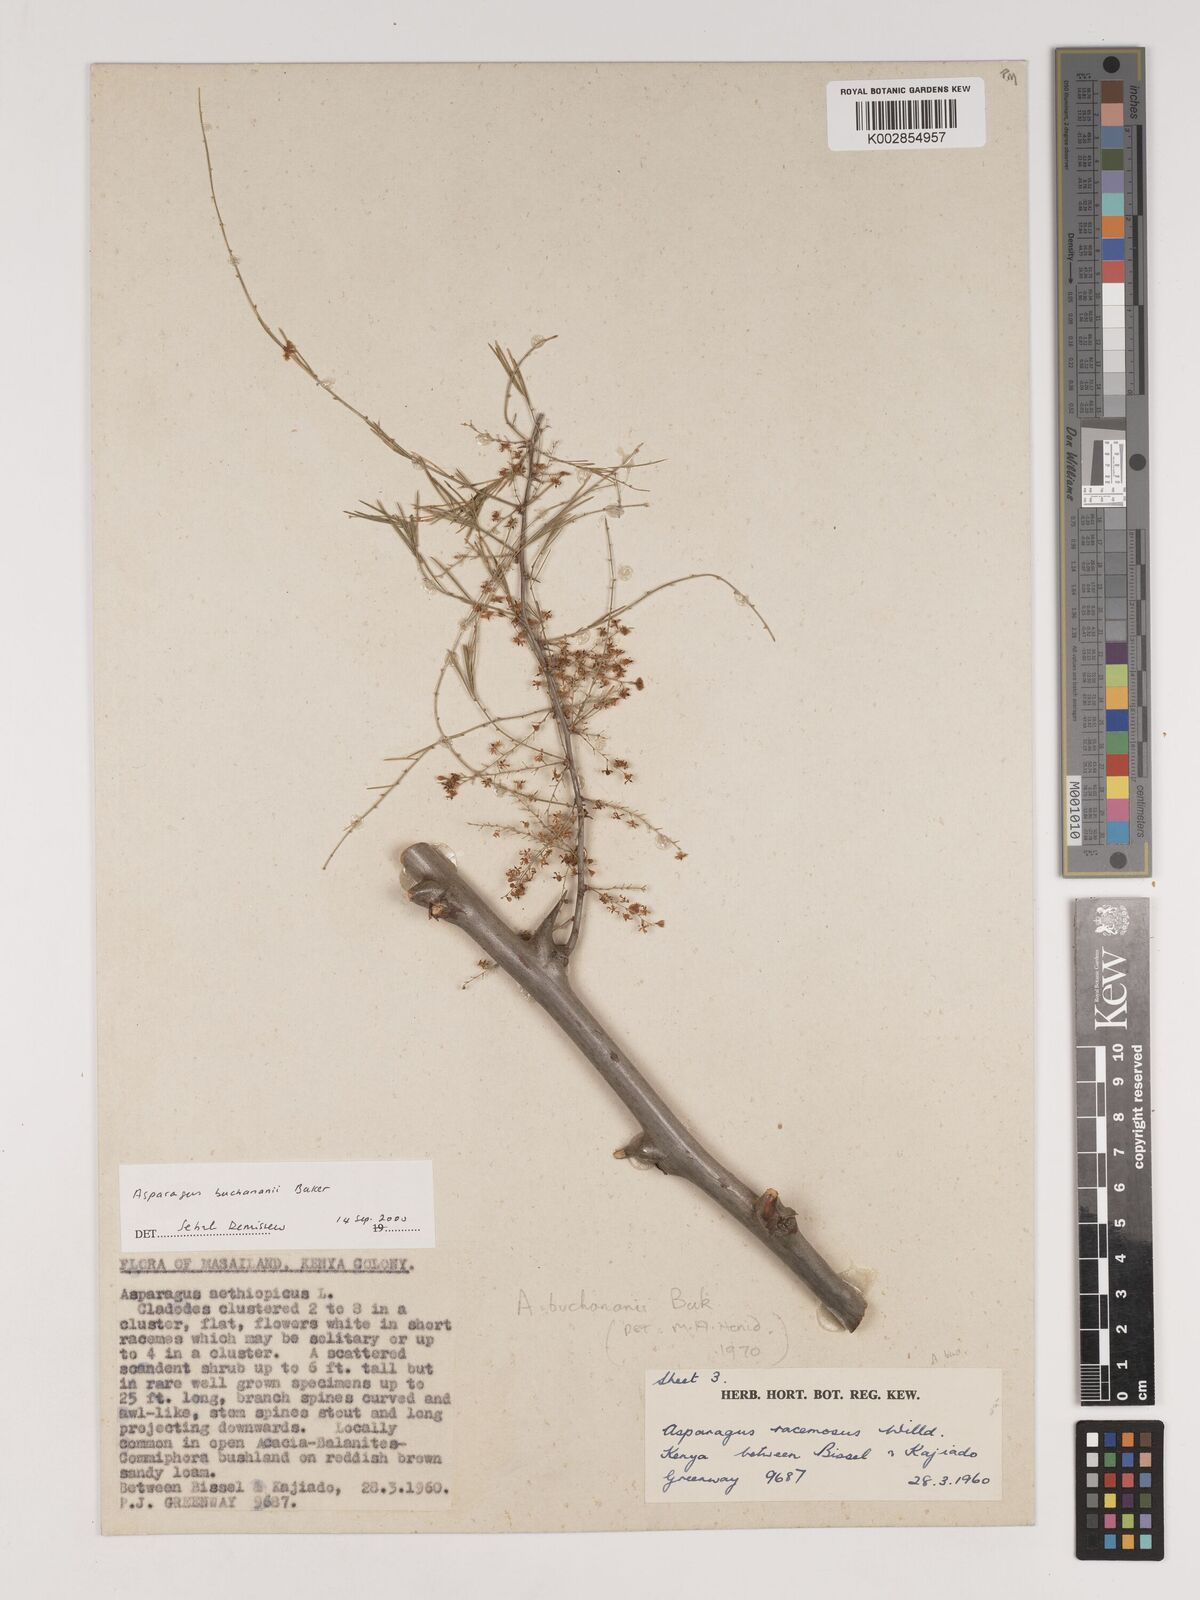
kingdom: Plantae
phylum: Tracheophyta
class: Liliopsida
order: Asparagales
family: Asparagaceae
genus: Asparagus
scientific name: Asparagus buchananii
